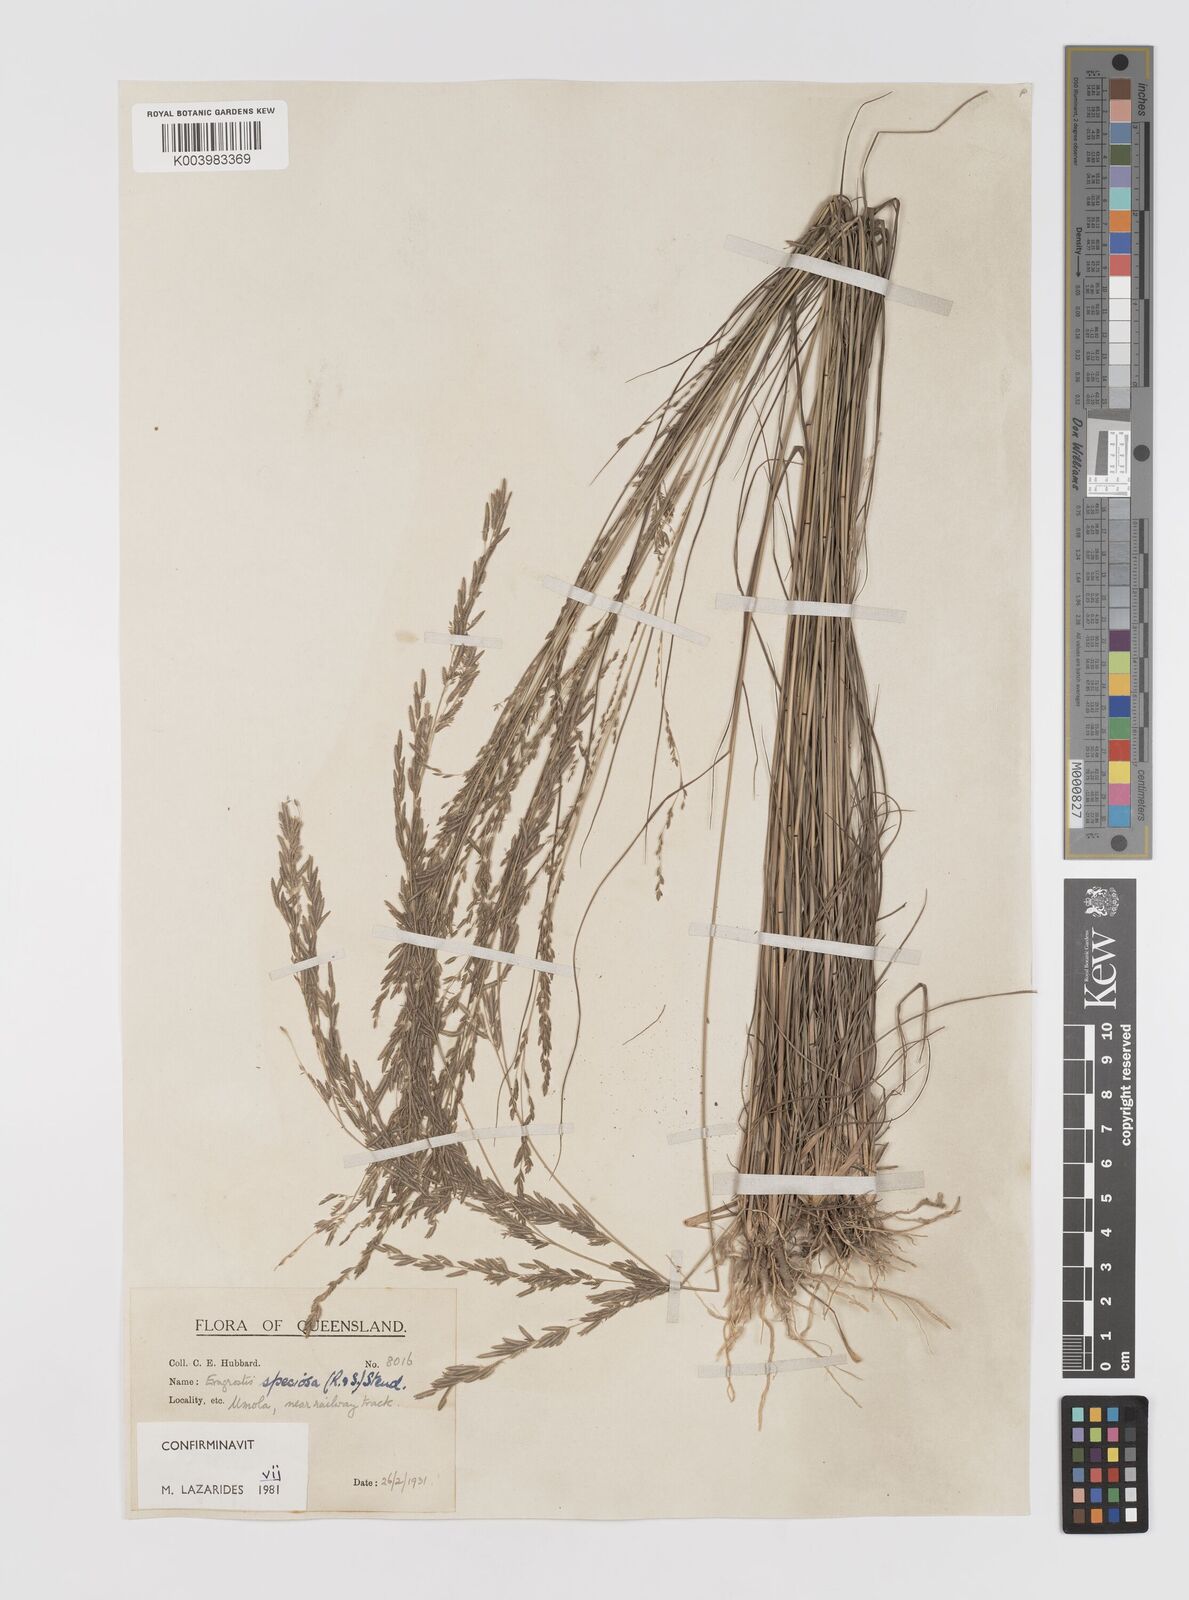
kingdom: Plantae
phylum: Tracheophyta
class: Liliopsida
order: Poales
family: Poaceae
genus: Eragrostis
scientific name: Eragrostis speciosa
